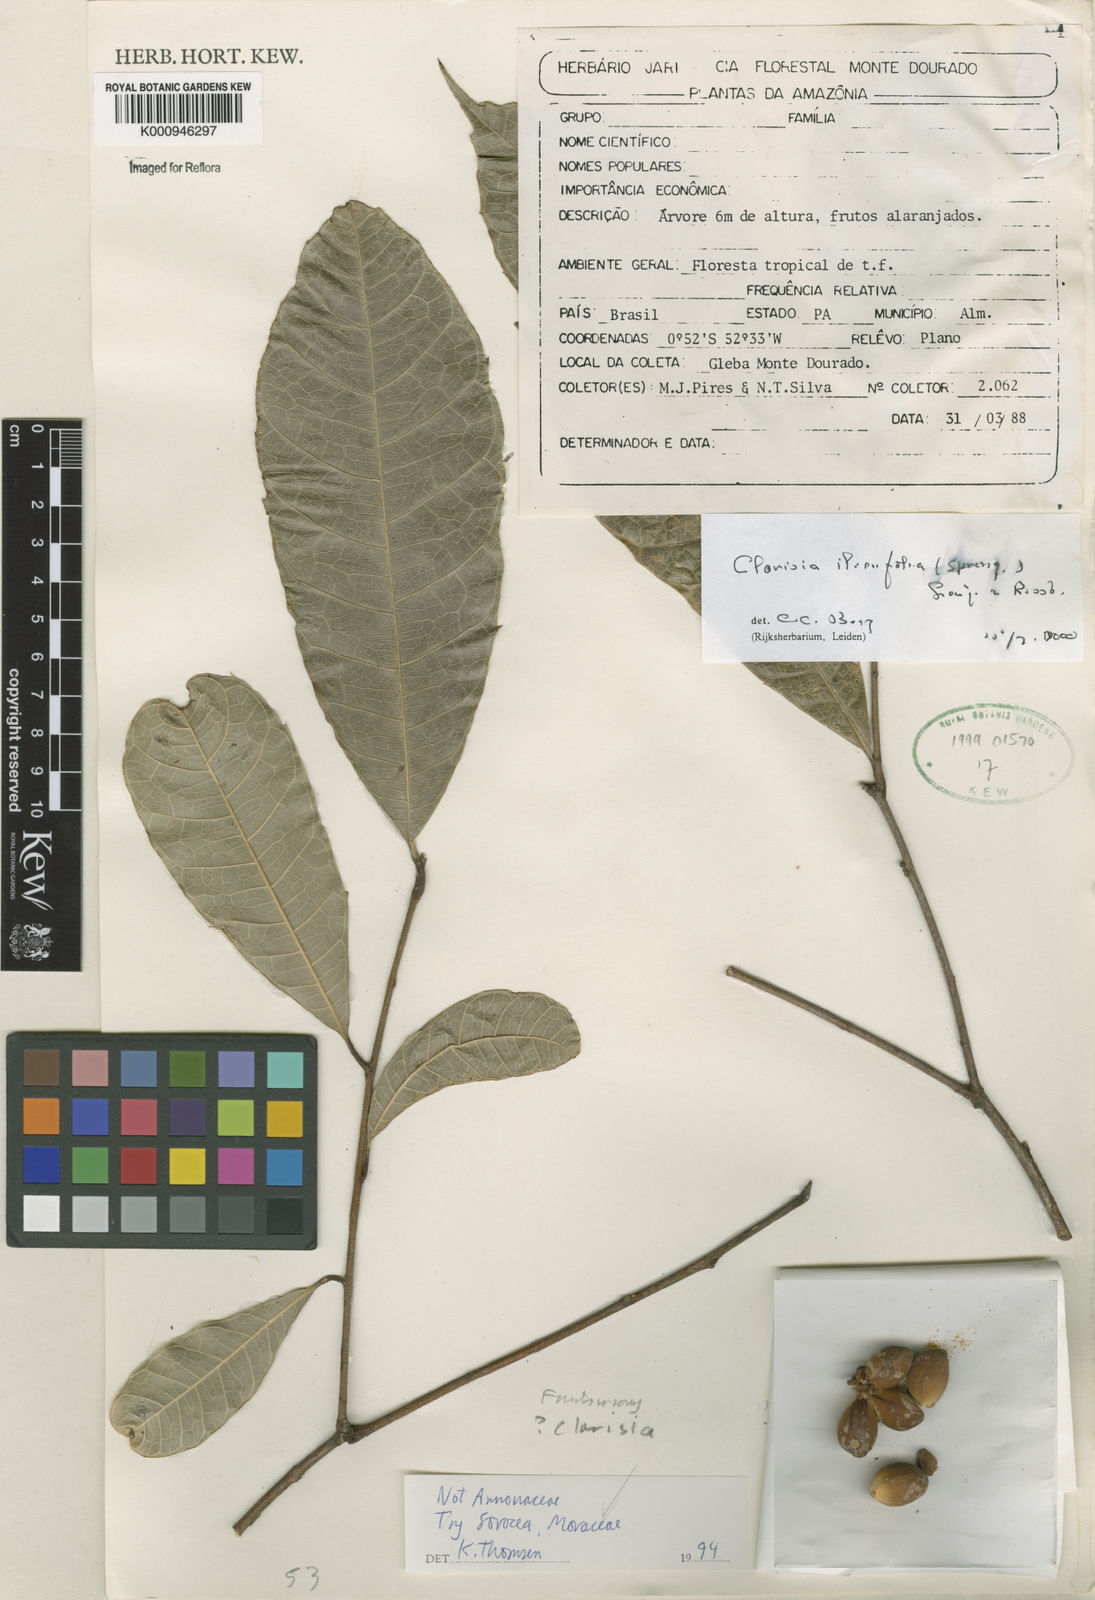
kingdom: Plantae
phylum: Tracheophyta
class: Magnoliopsida
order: Rosales
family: Moraceae
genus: Clarisia
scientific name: Clarisia ilicifolia
